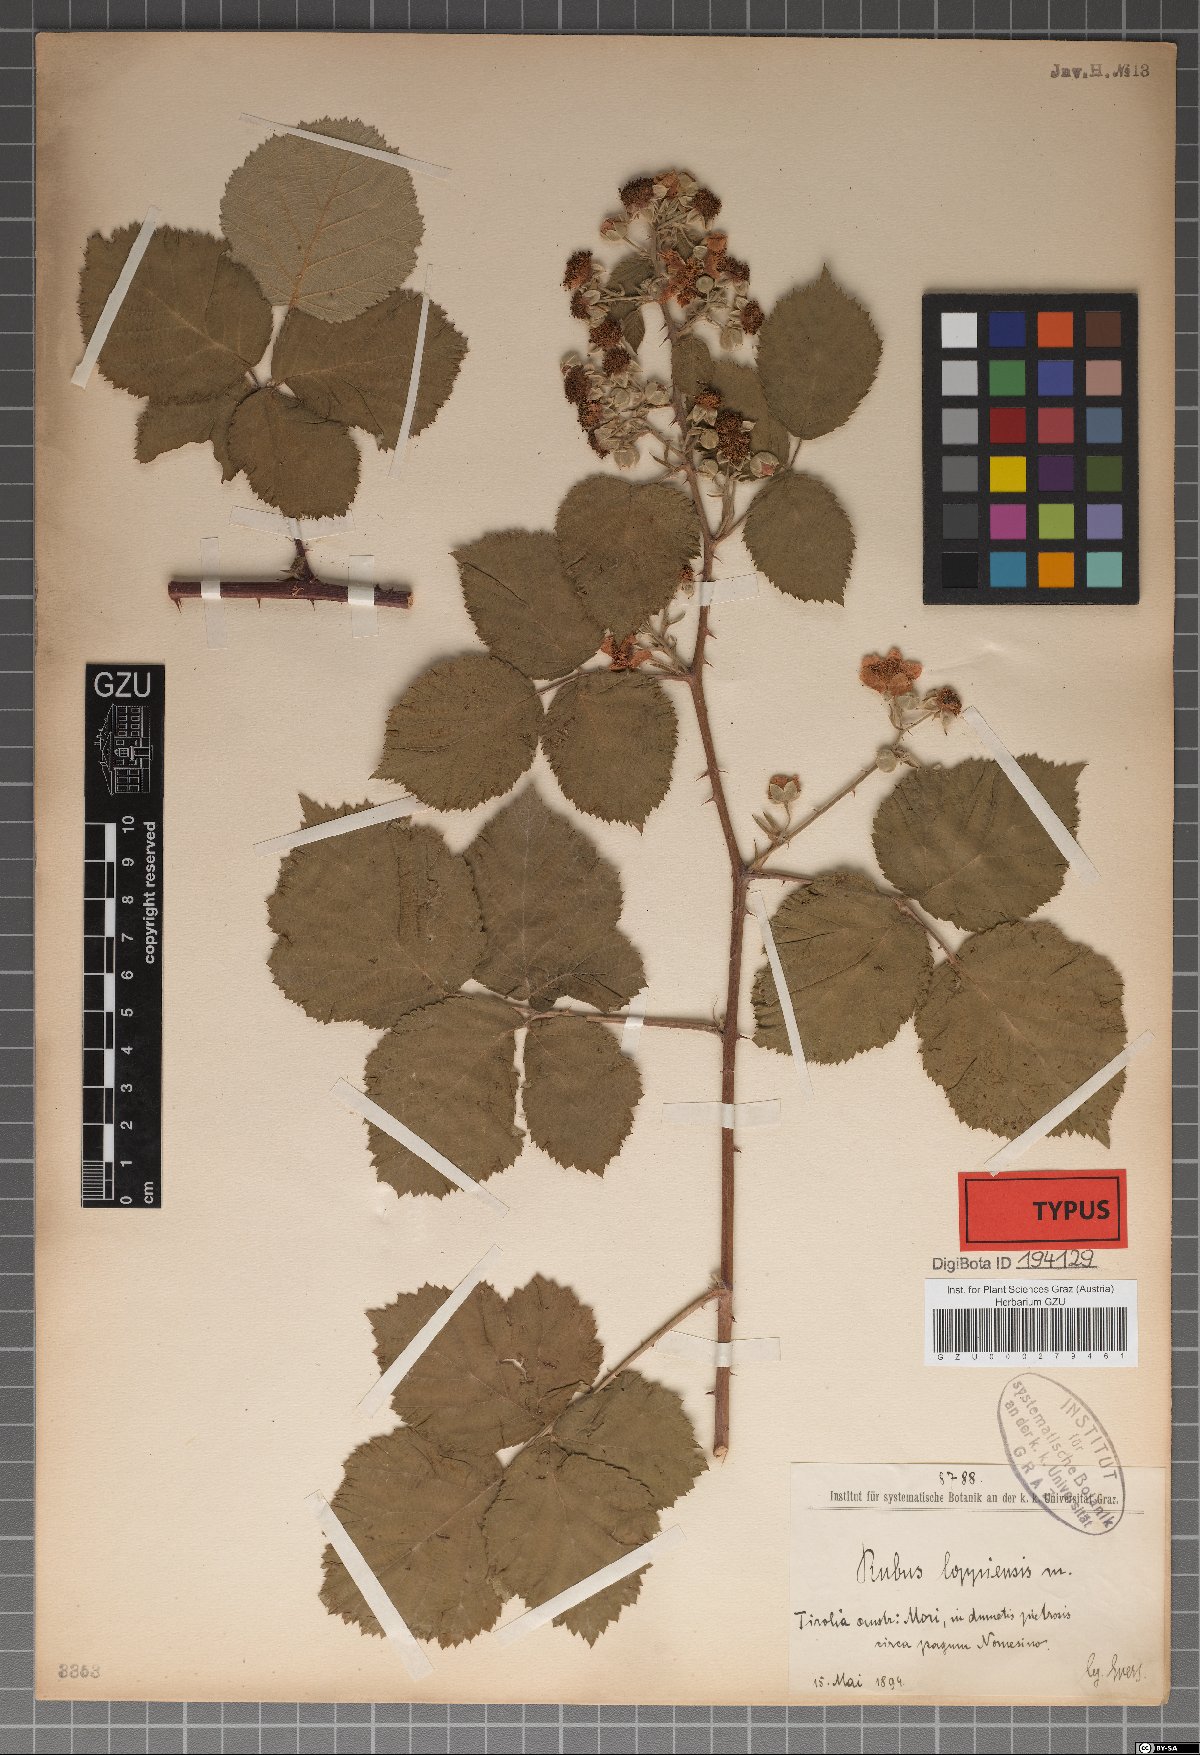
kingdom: Plantae
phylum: Tracheophyta
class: Magnoliopsida
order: Rosales
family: Rosaceae
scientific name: Rosaceae
